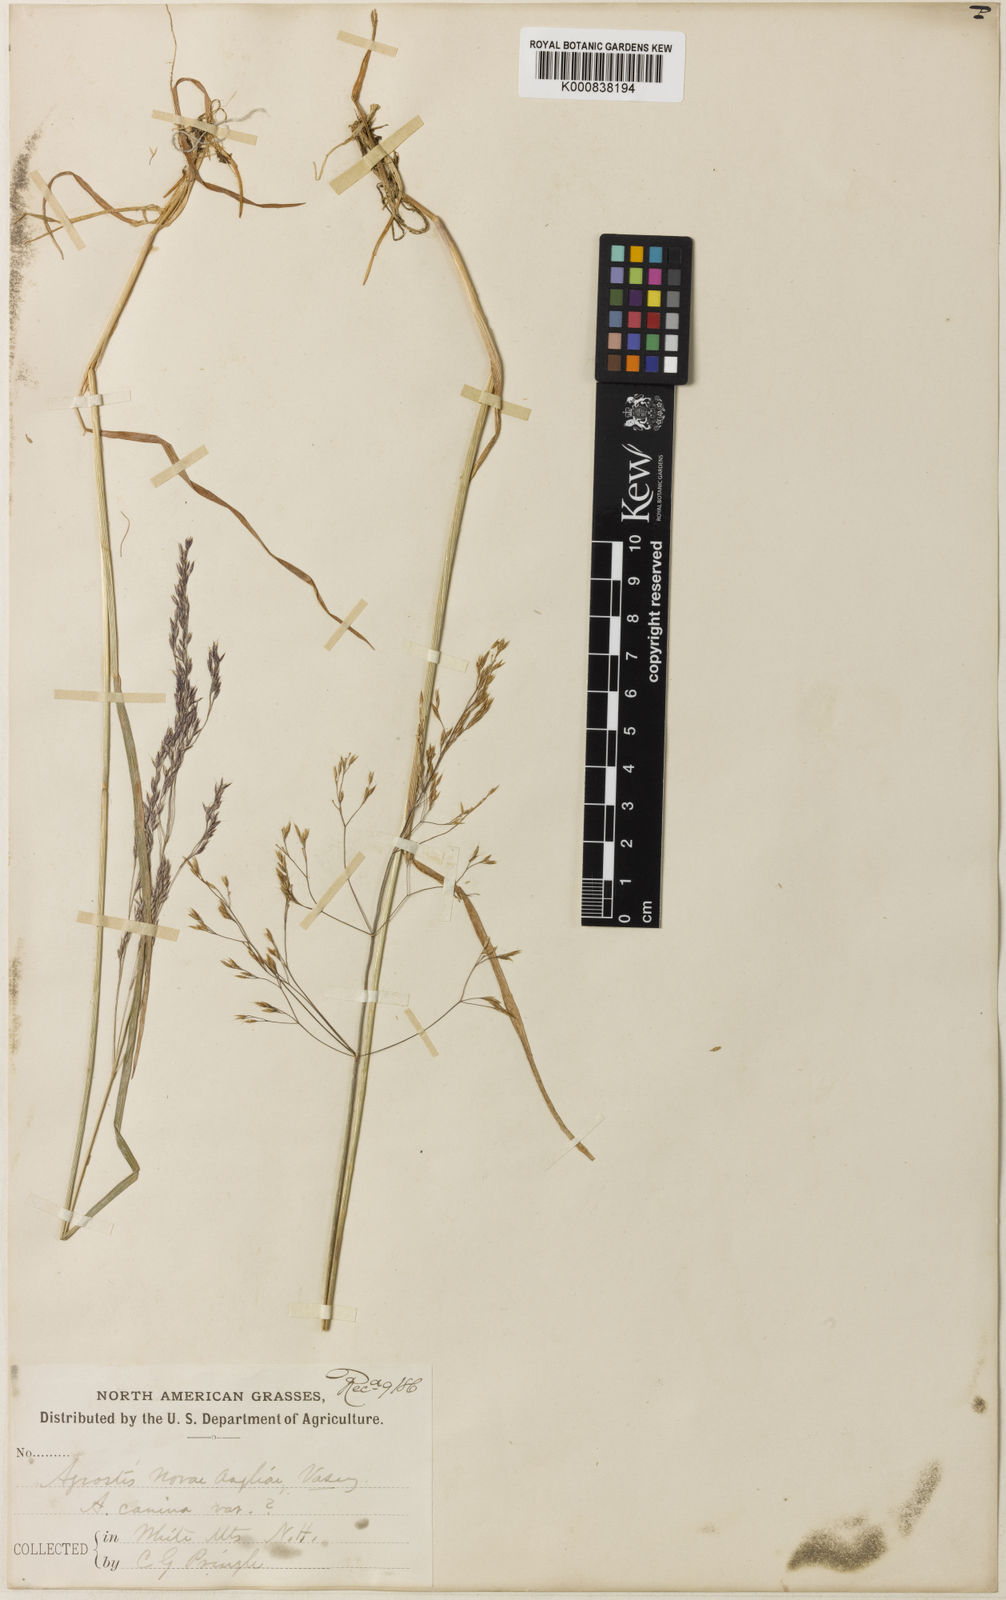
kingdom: Plantae
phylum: Tracheophyta
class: Liliopsida
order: Poales
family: Poaceae
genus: Agrostis
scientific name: Agrostis mertensii
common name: Northern bent
